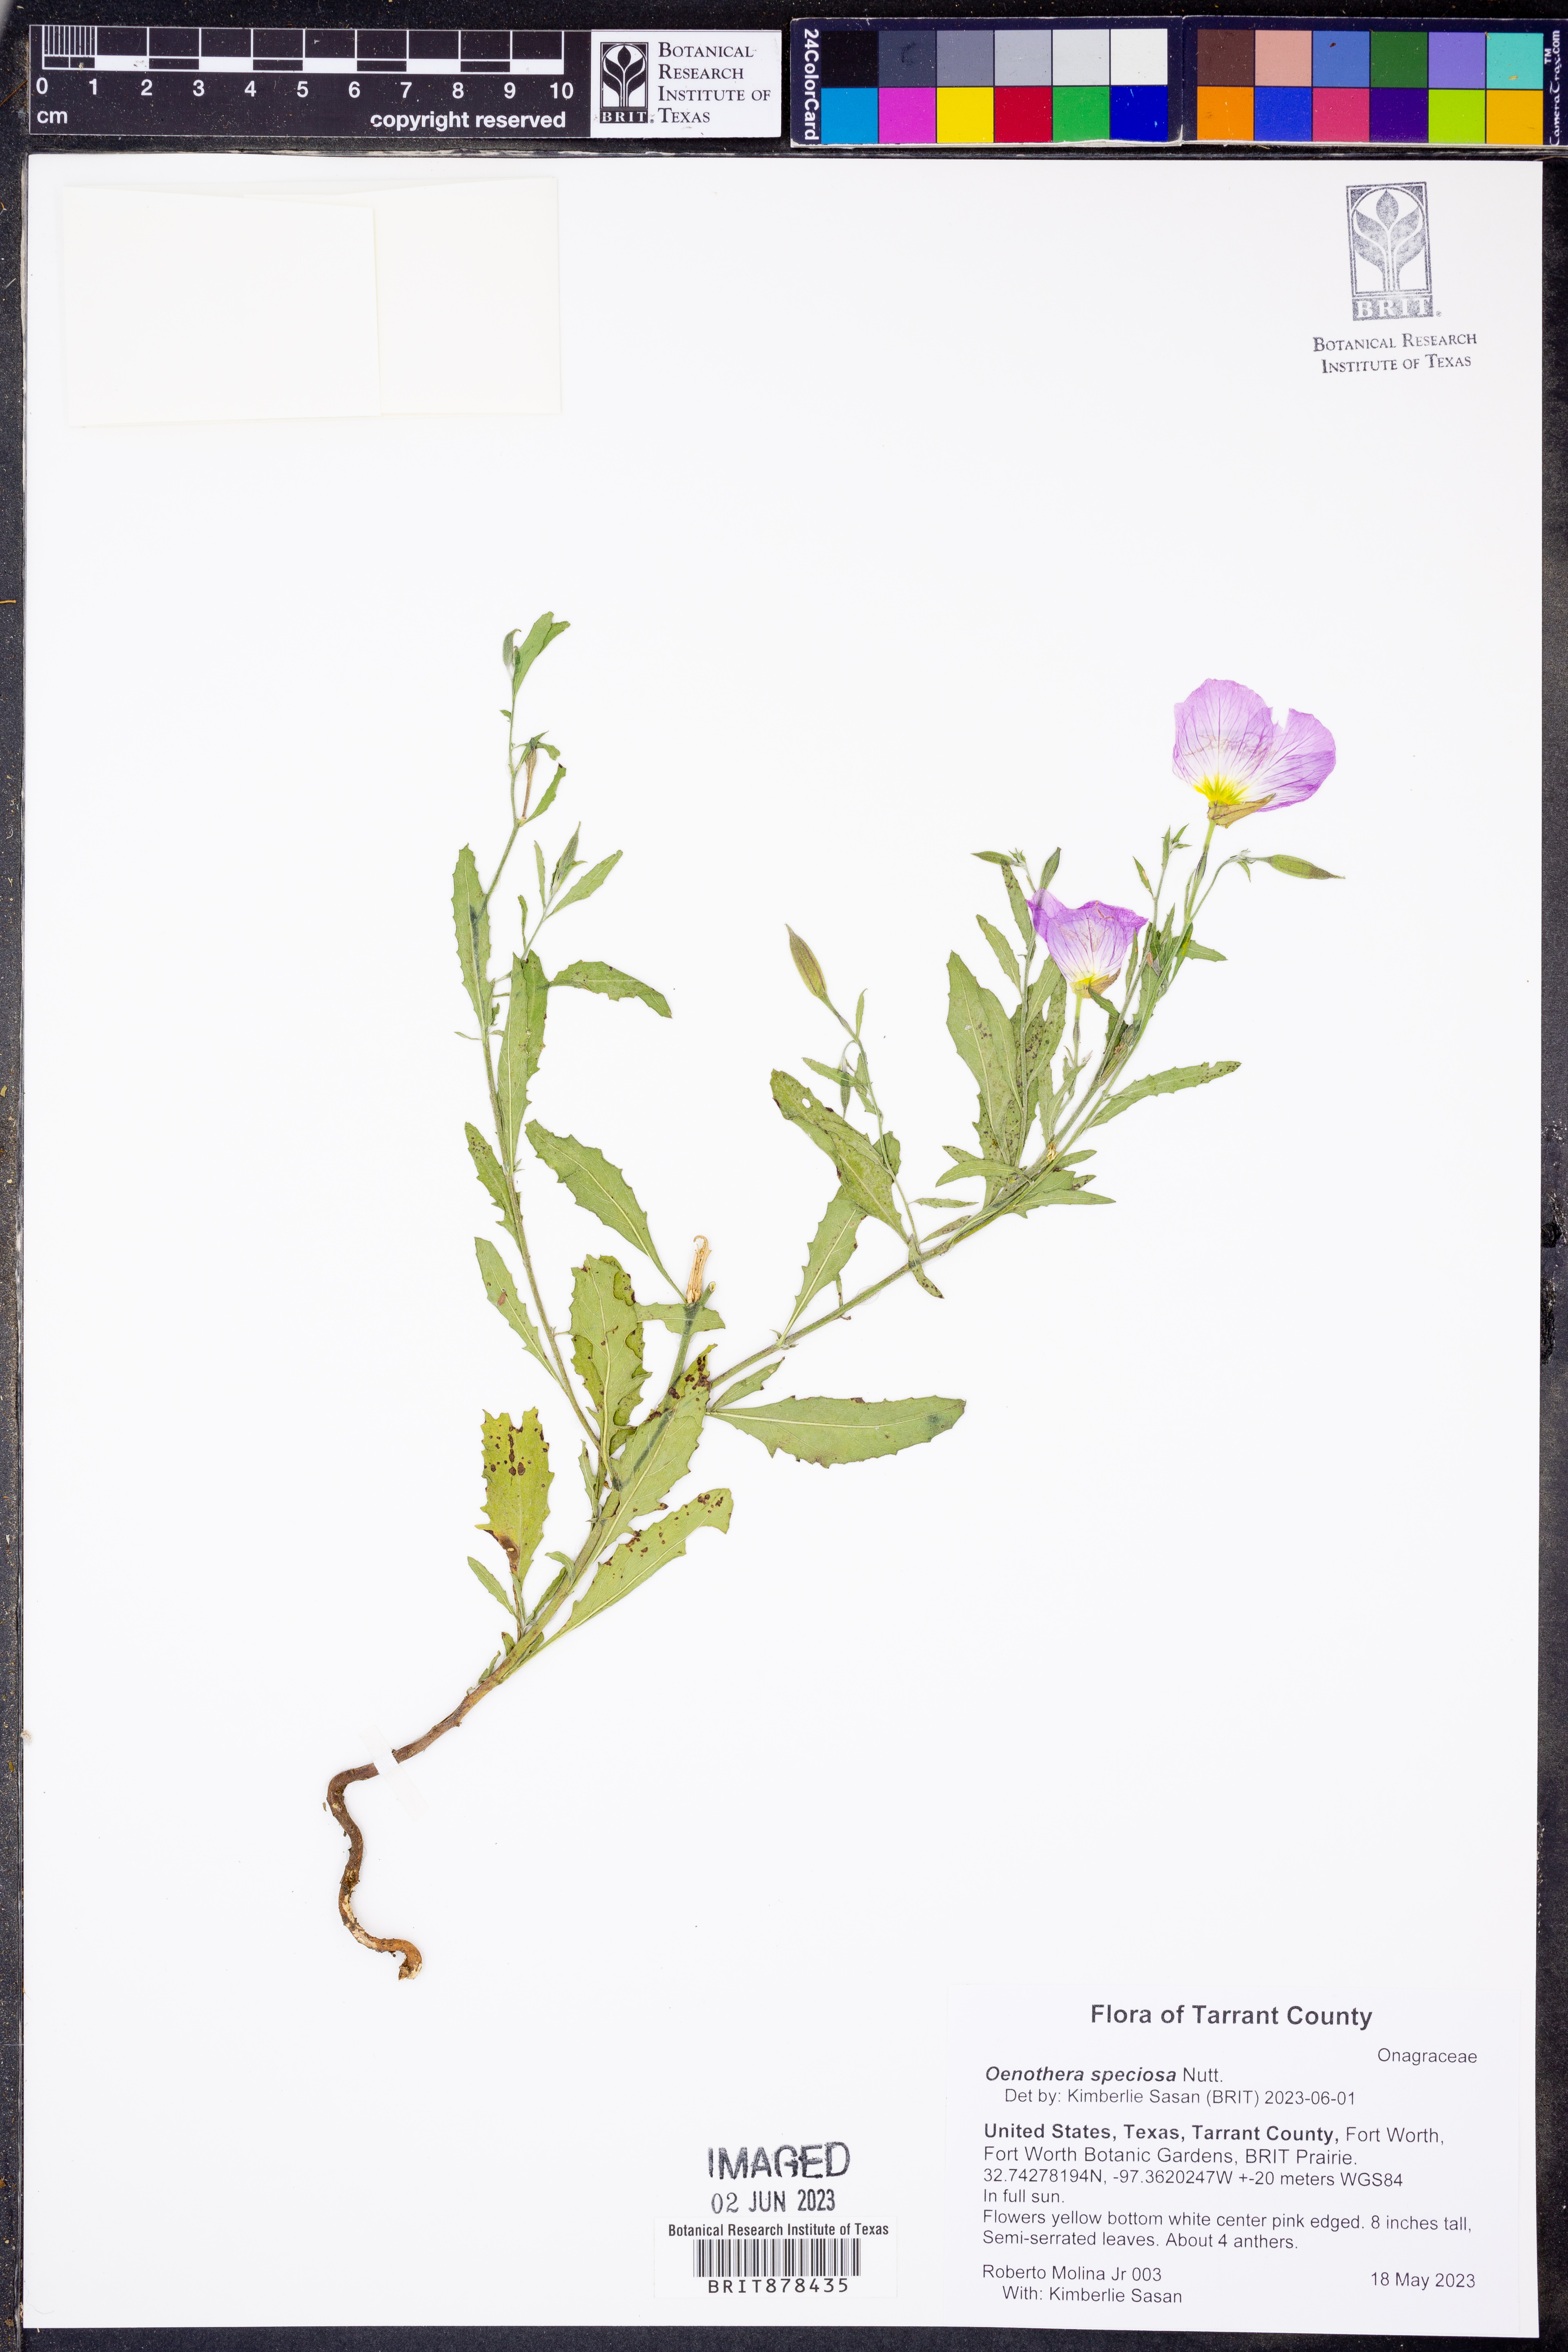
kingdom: Plantae
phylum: Tracheophyta
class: Magnoliopsida
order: Myrtales
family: Onagraceae
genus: Oenothera
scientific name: Oenothera speciosa
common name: White evening-primrose
